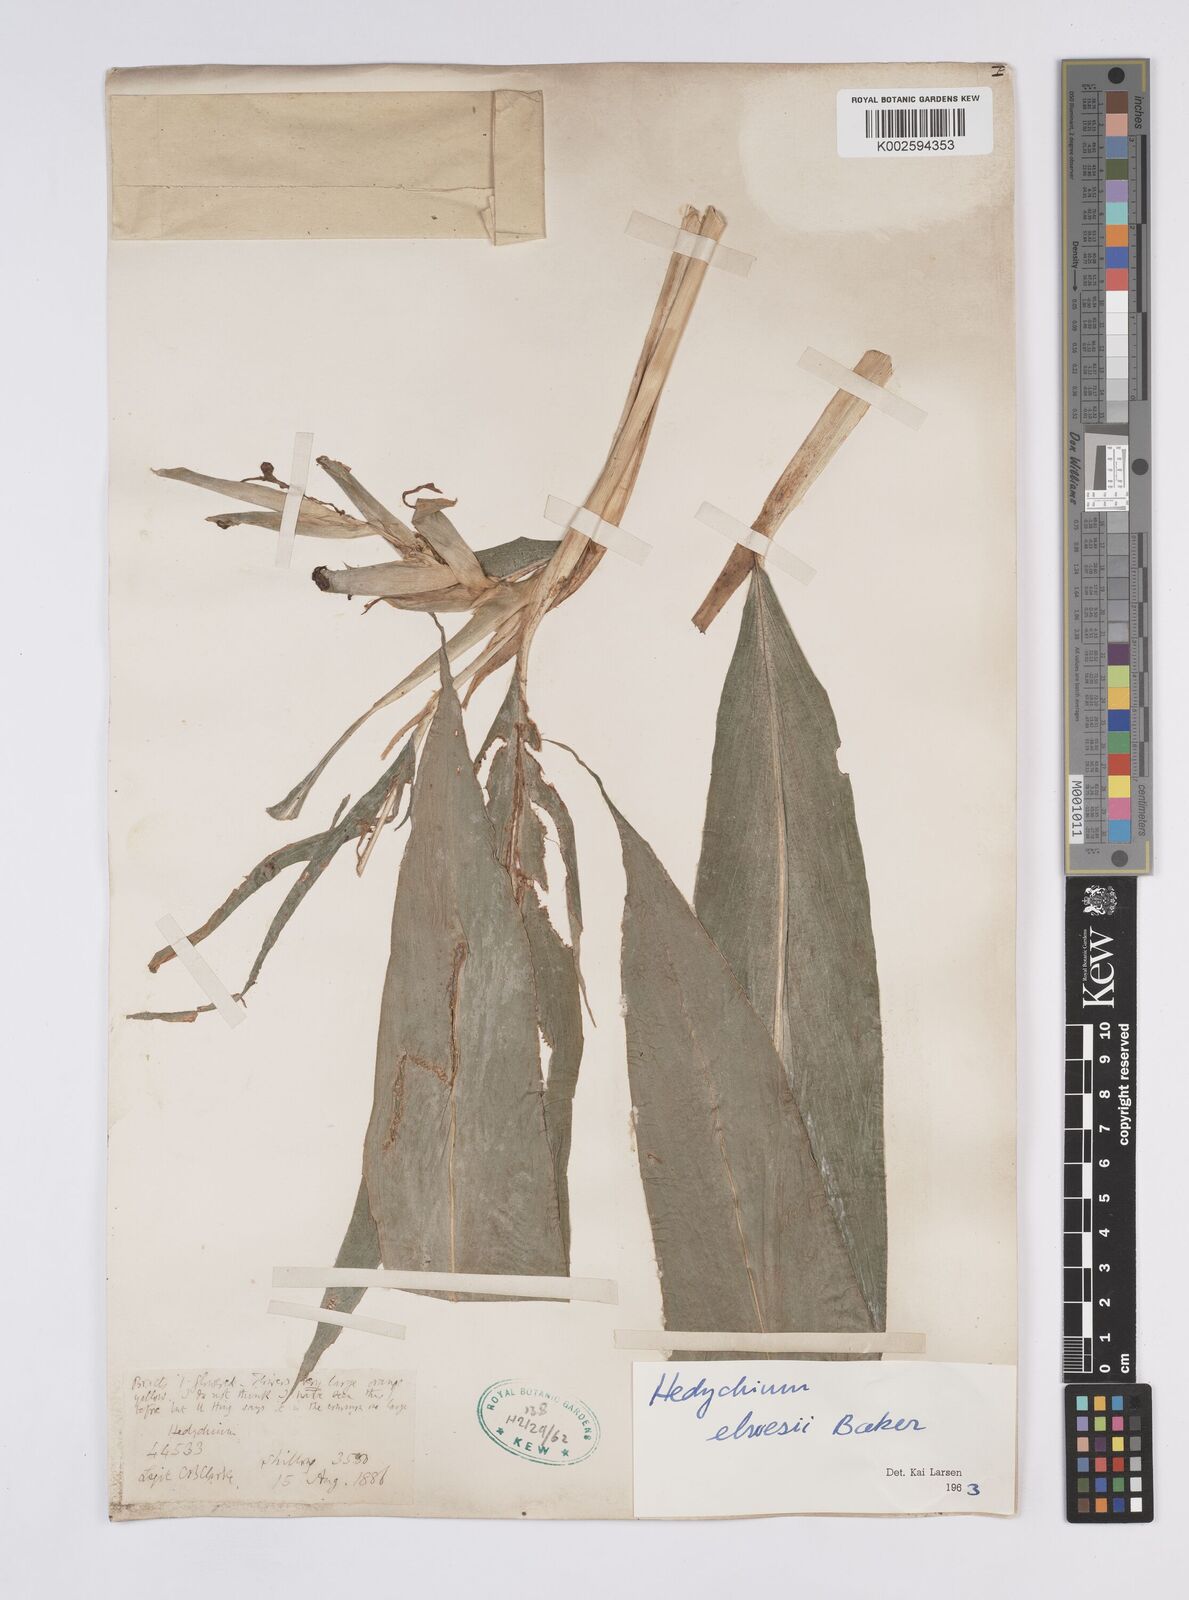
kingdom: Plantae
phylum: Tracheophyta
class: Liliopsida
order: Zingiberales
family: Zingiberaceae
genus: Hedychium
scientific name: Hedychium elwesii
